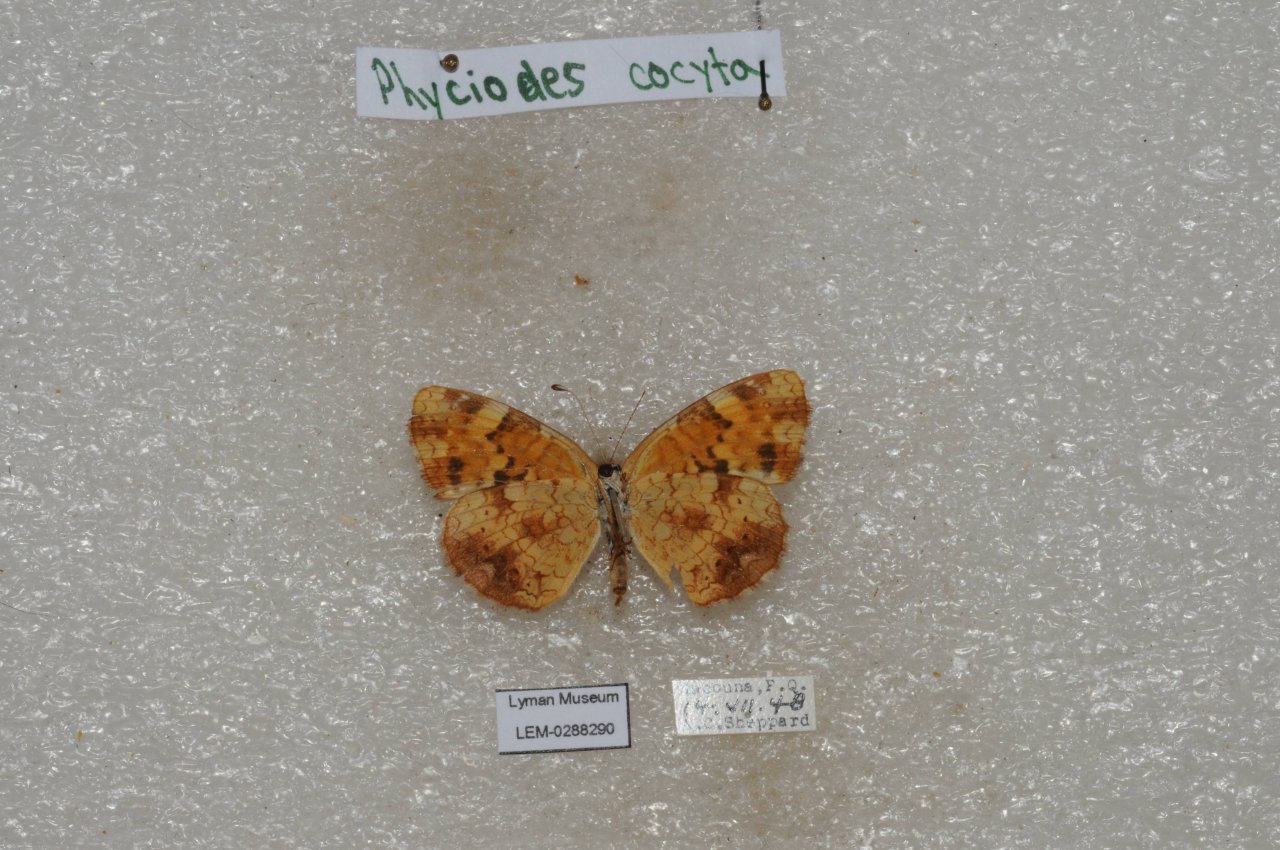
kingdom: Animalia
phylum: Arthropoda
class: Insecta
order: Lepidoptera
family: Nymphalidae
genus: Phyciodes
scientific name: Phyciodes tharos
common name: Northern Crescent
